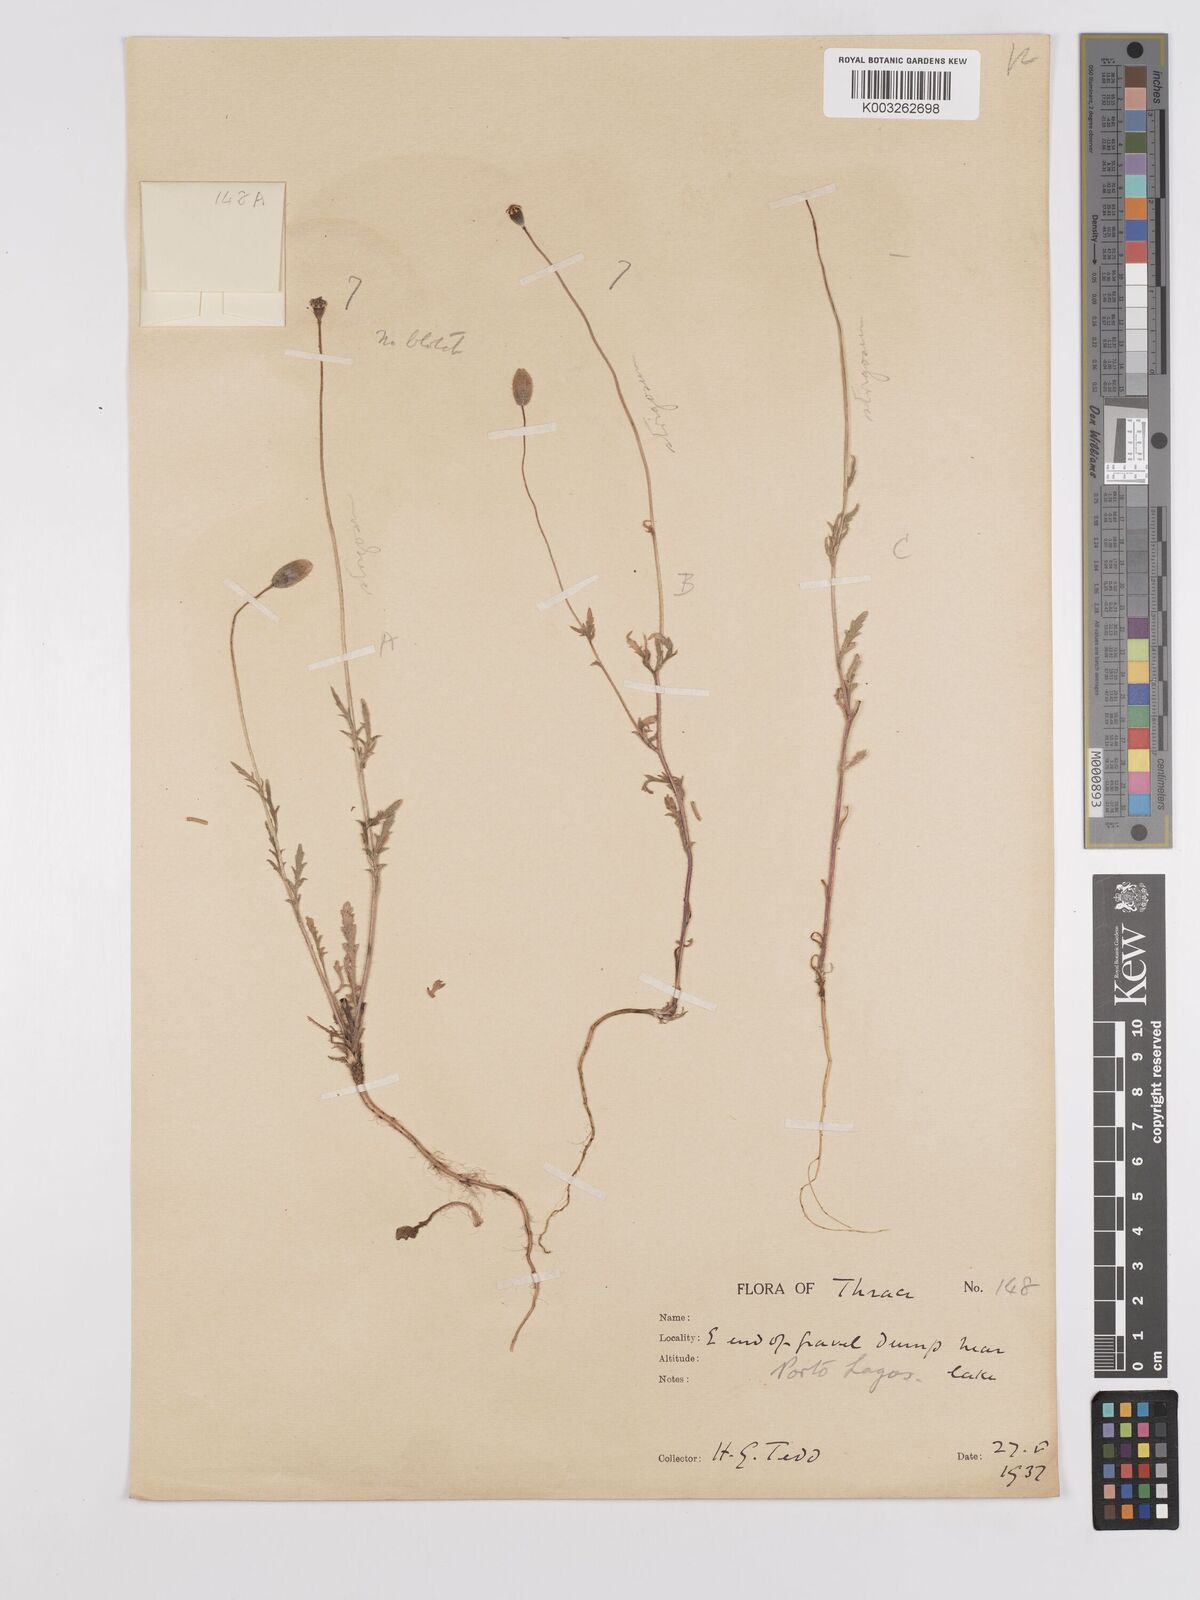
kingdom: Plantae
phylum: Tracheophyta
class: Magnoliopsida
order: Ranunculales
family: Papaveraceae
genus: Papaver
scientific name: Papaver
